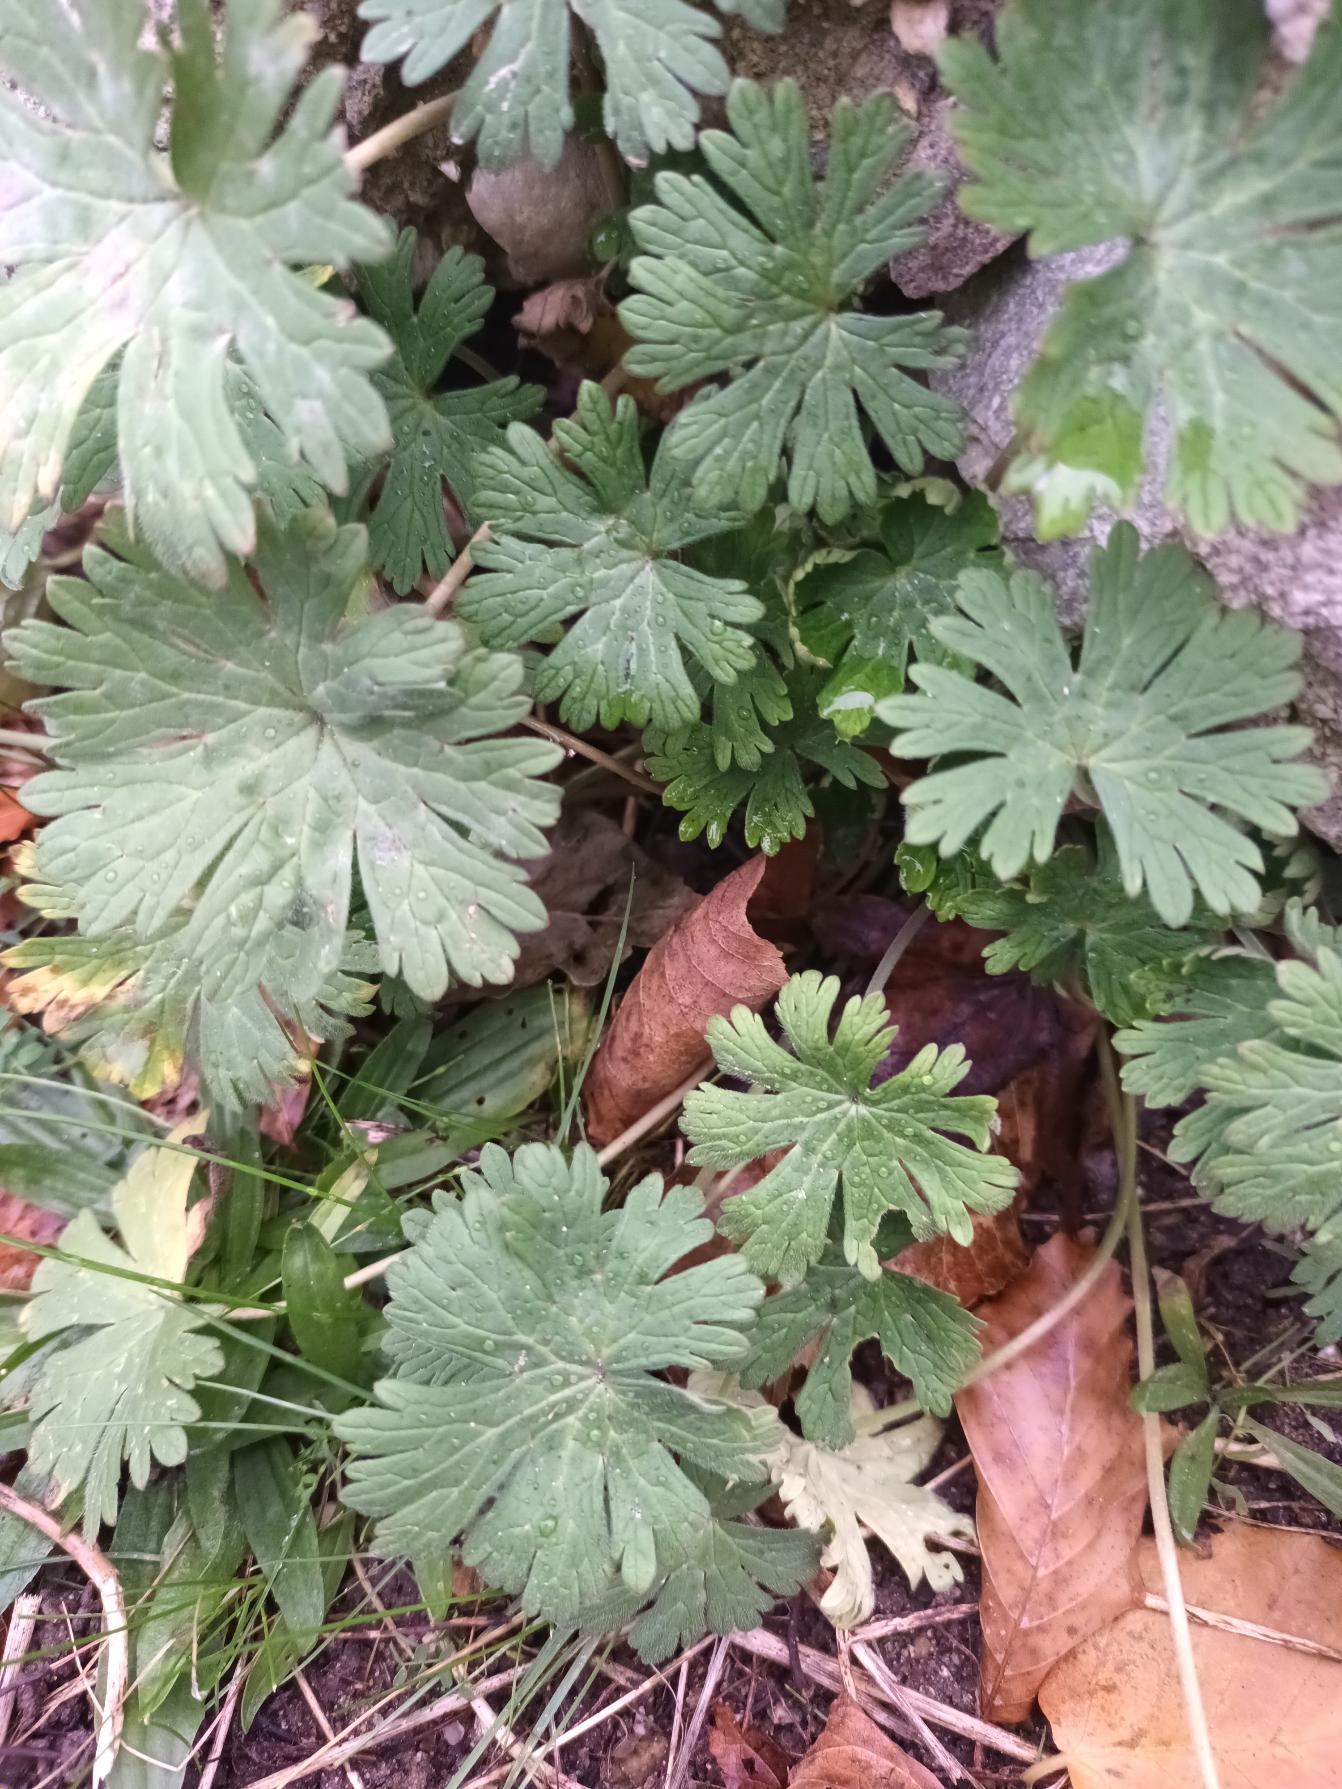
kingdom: Plantae
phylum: Tracheophyta
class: Magnoliopsida
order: Geraniales
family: Geraniaceae
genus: Geranium
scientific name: Geranium pusillum
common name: Liden storkenæb
